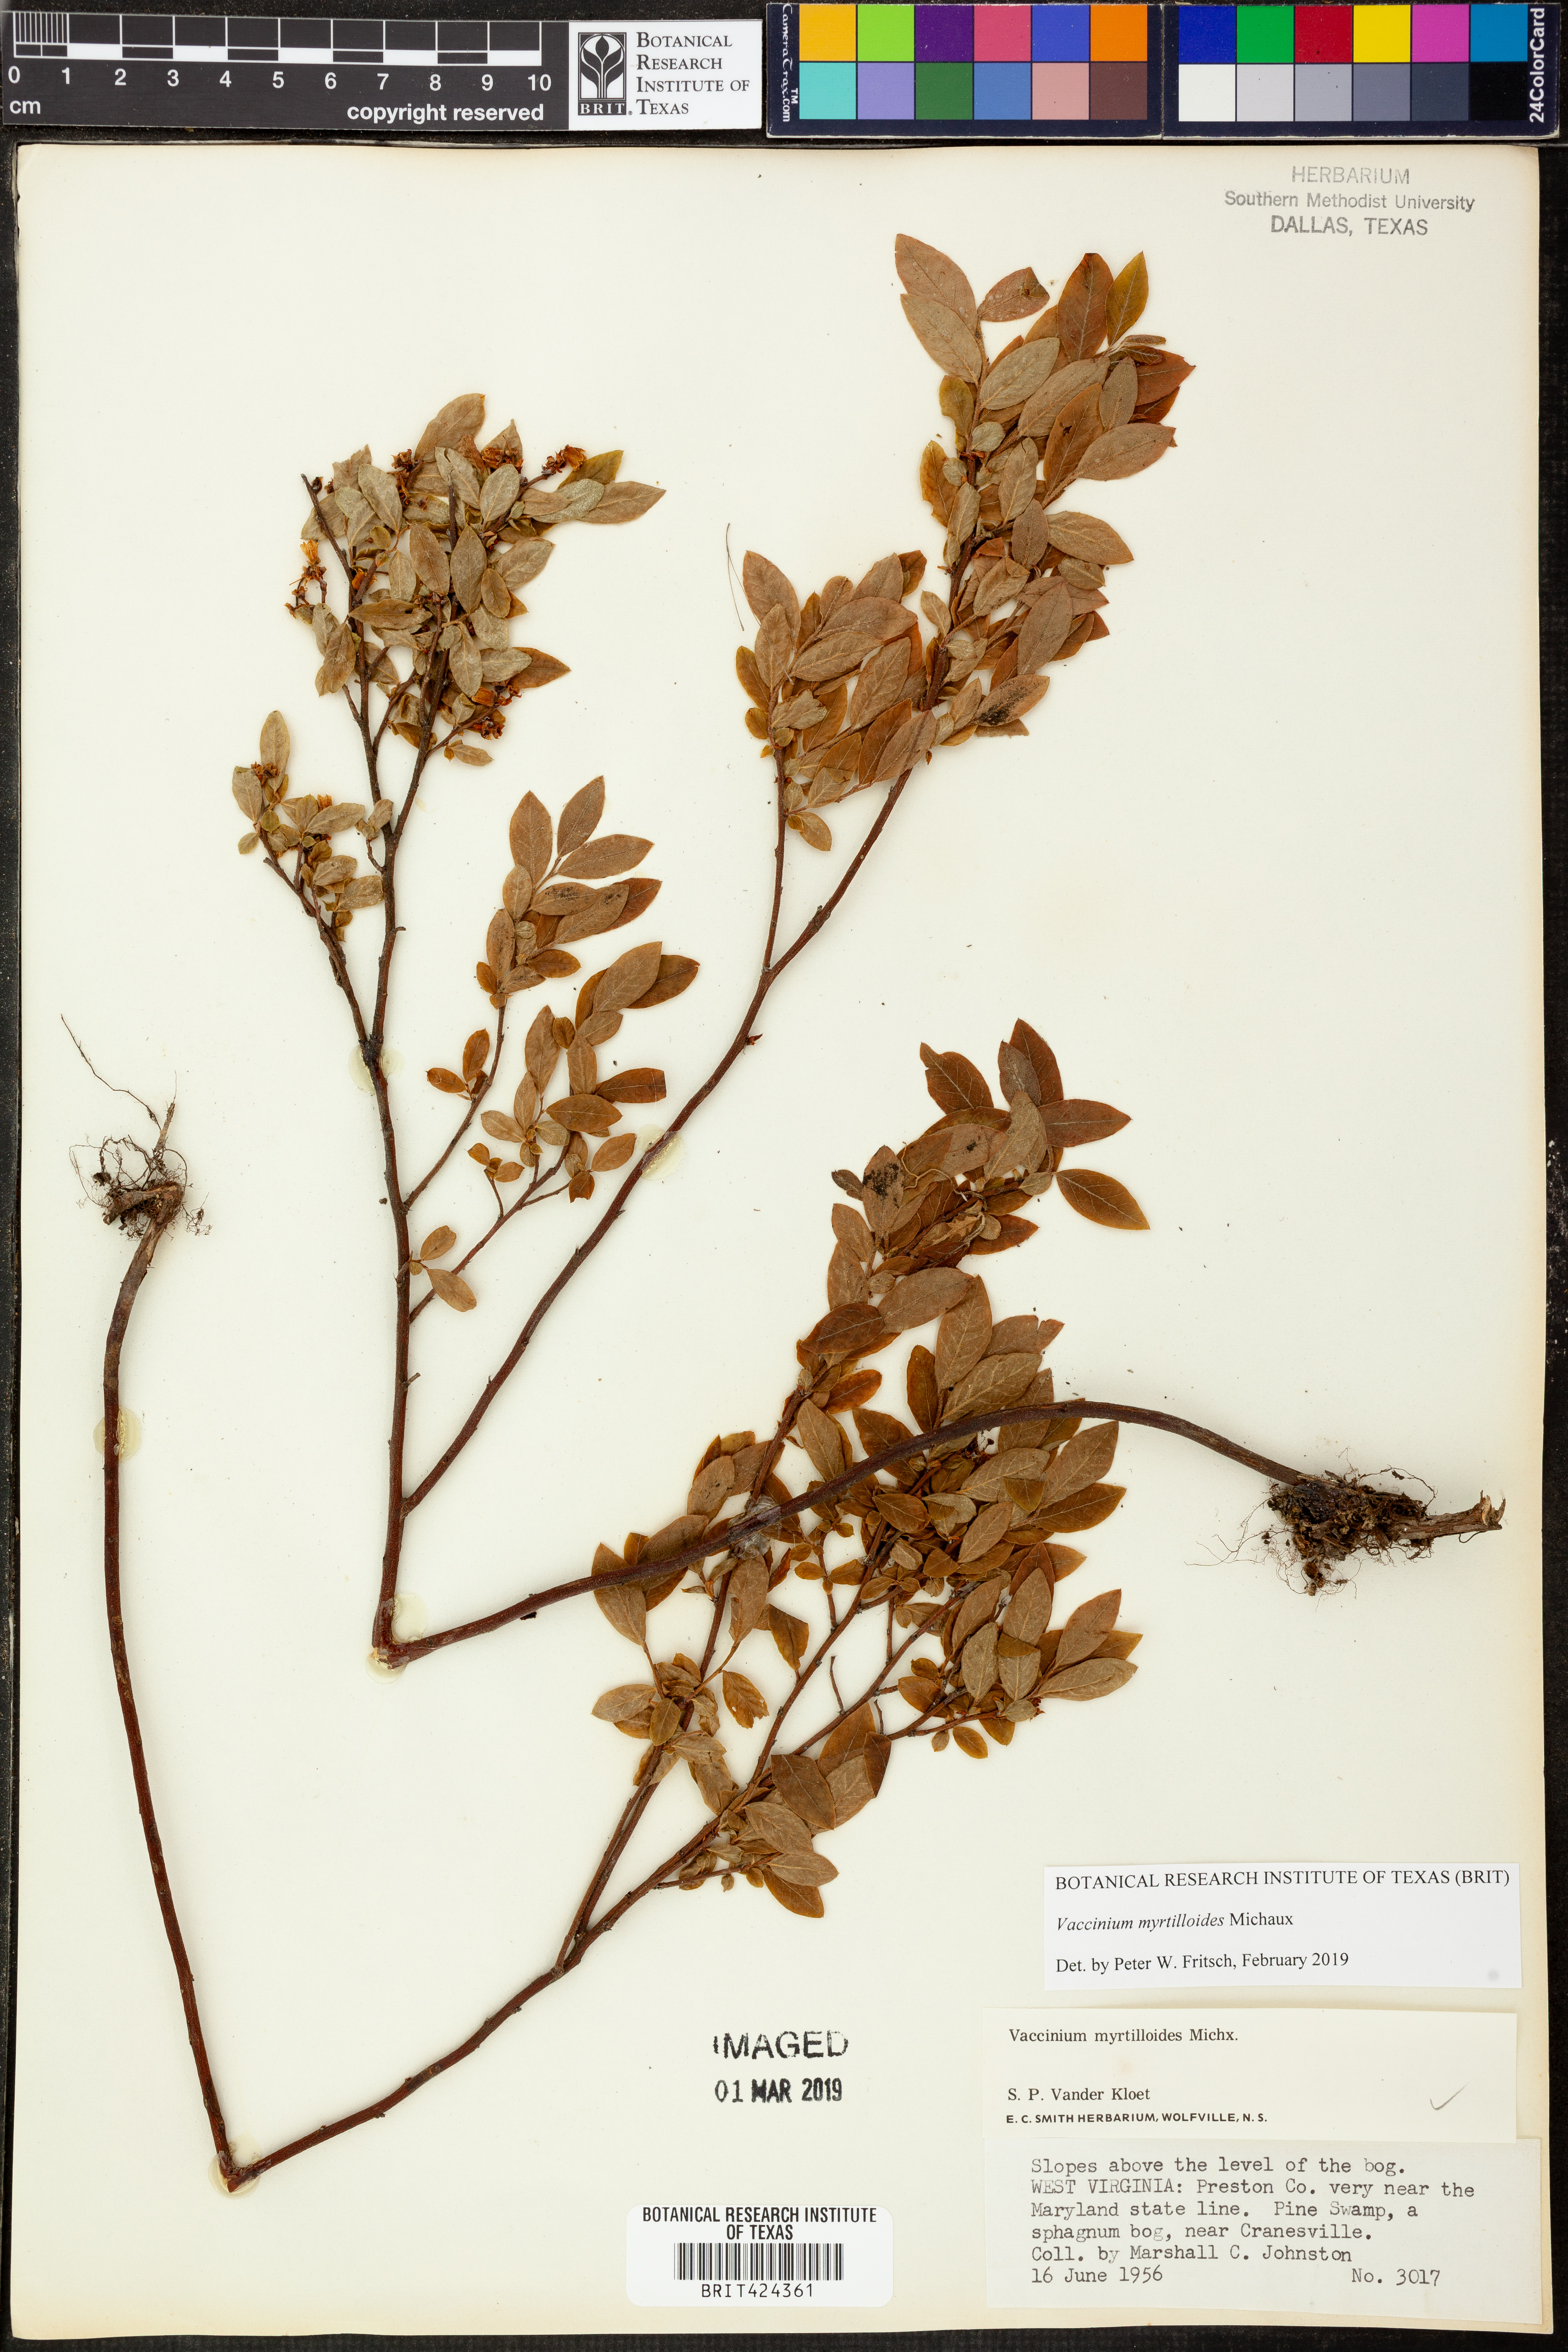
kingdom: Plantae
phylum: Tracheophyta
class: Magnoliopsida
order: Ericales
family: Ericaceae
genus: Vaccinium
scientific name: Vaccinium myrtilloides
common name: Canada blueberry
